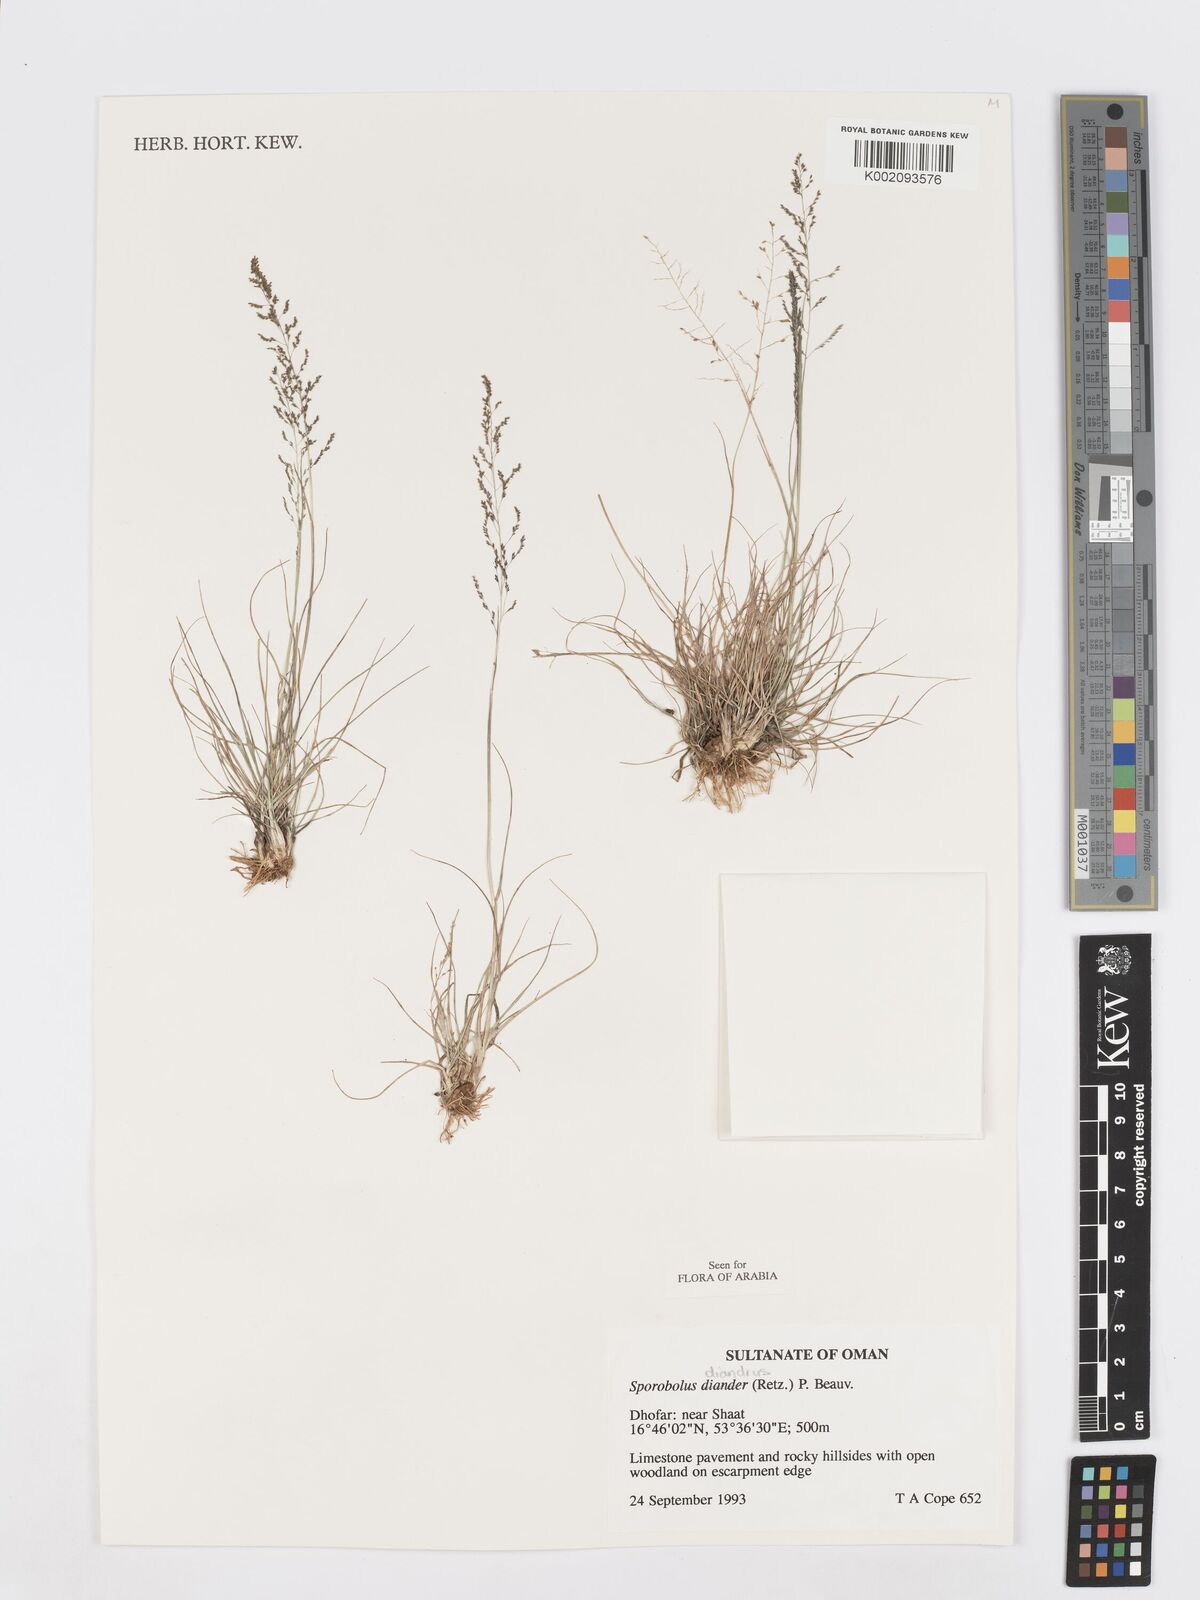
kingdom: Plantae
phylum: Tracheophyta
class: Liliopsida
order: Poales
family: Poaceae
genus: Sporobolus
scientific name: Sporobolus diandrus
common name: Tussock dropseed
